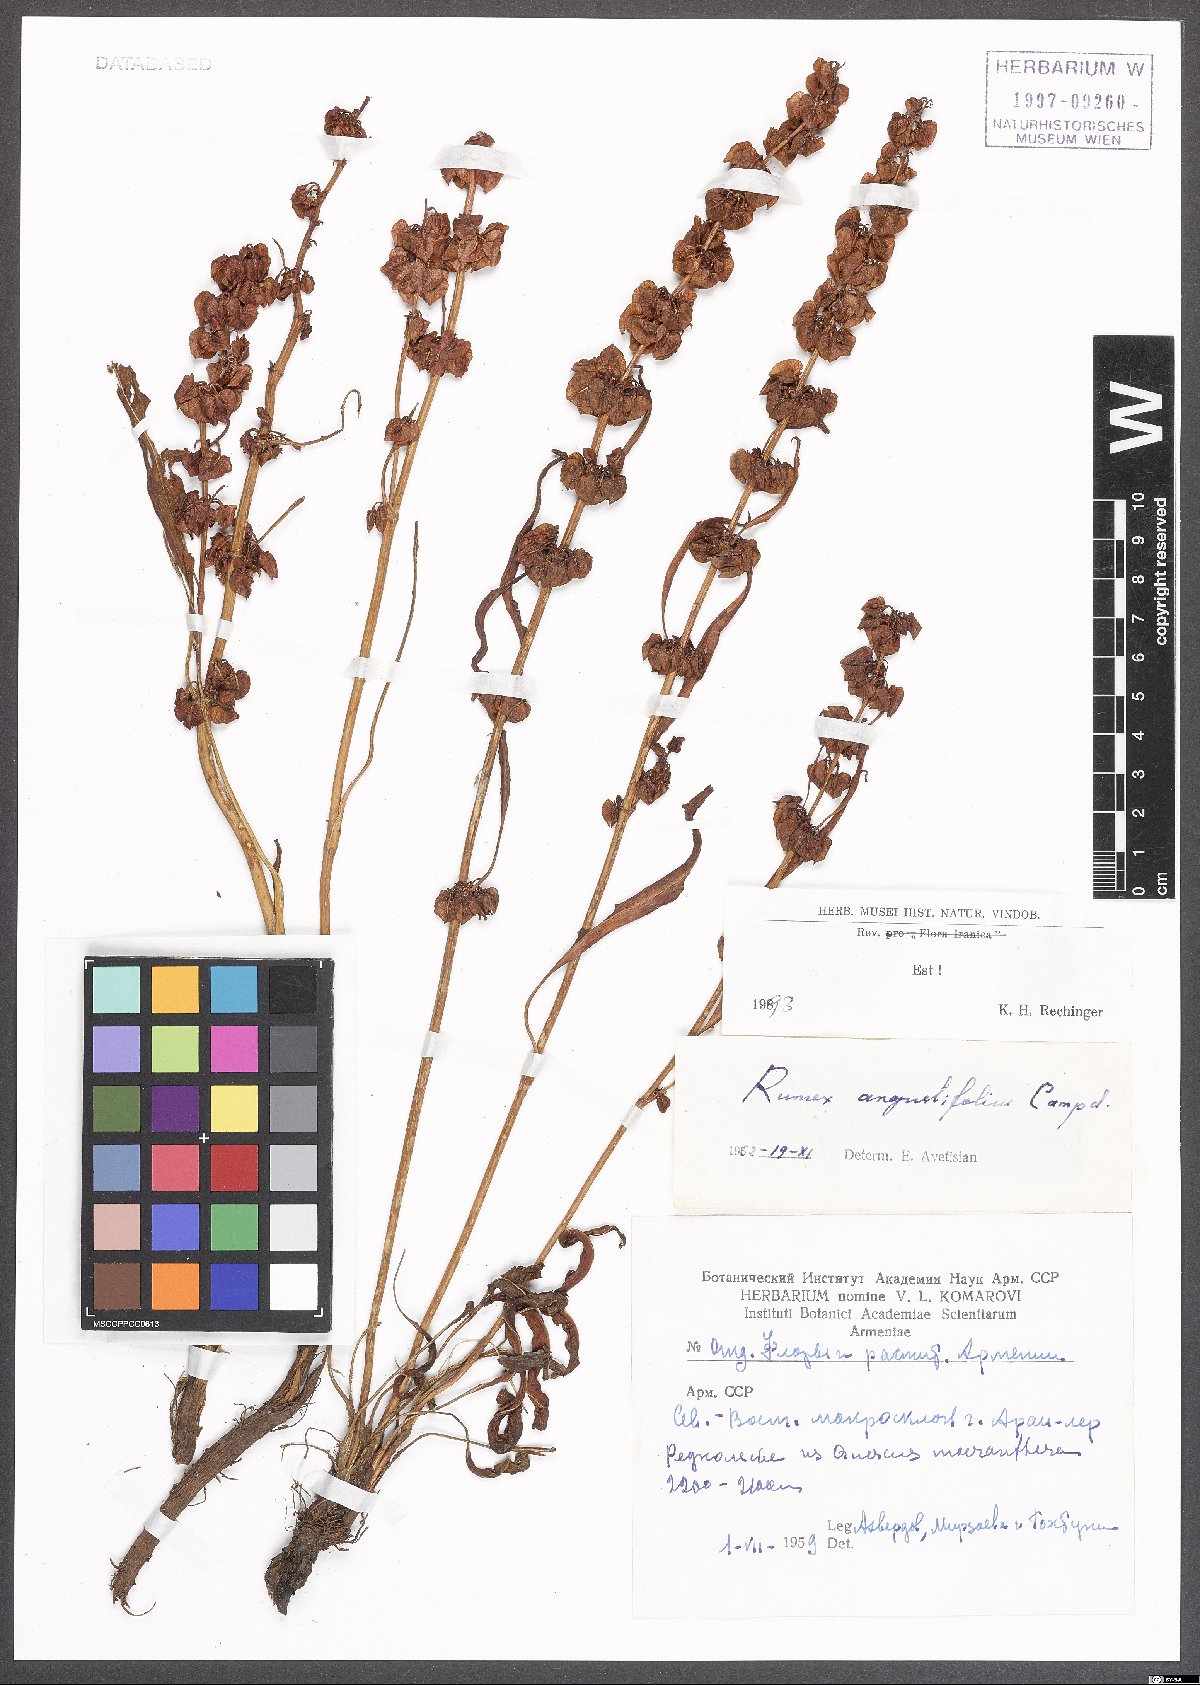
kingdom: Plantae
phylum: Tracheophyta
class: Magnoliopsida
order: Caryophyllales
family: Polygonaceae
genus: Rumex
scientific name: Rumex angustifolius
